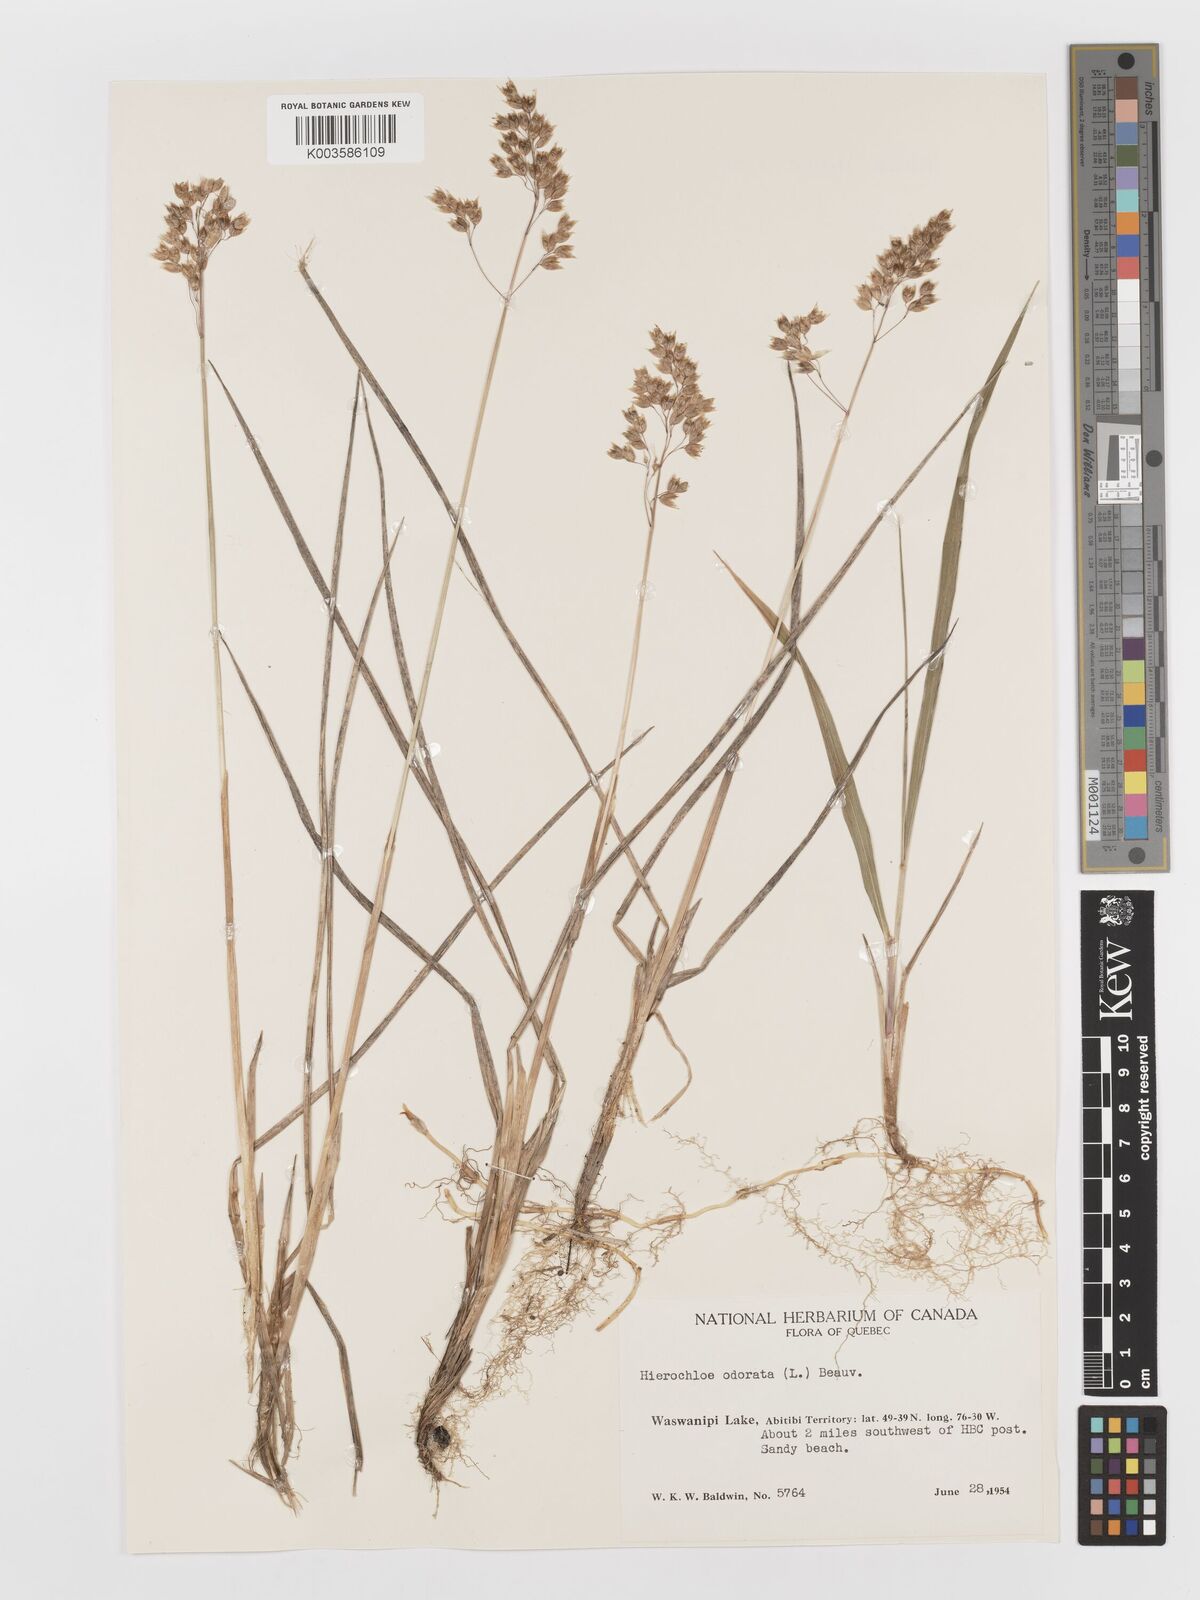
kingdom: Plantae
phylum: Tracheophyta
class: Liliopsida
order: Poales
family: Poaceae
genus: Anthoxanthum
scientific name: Anthoxanthum nitens
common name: Holy grass
